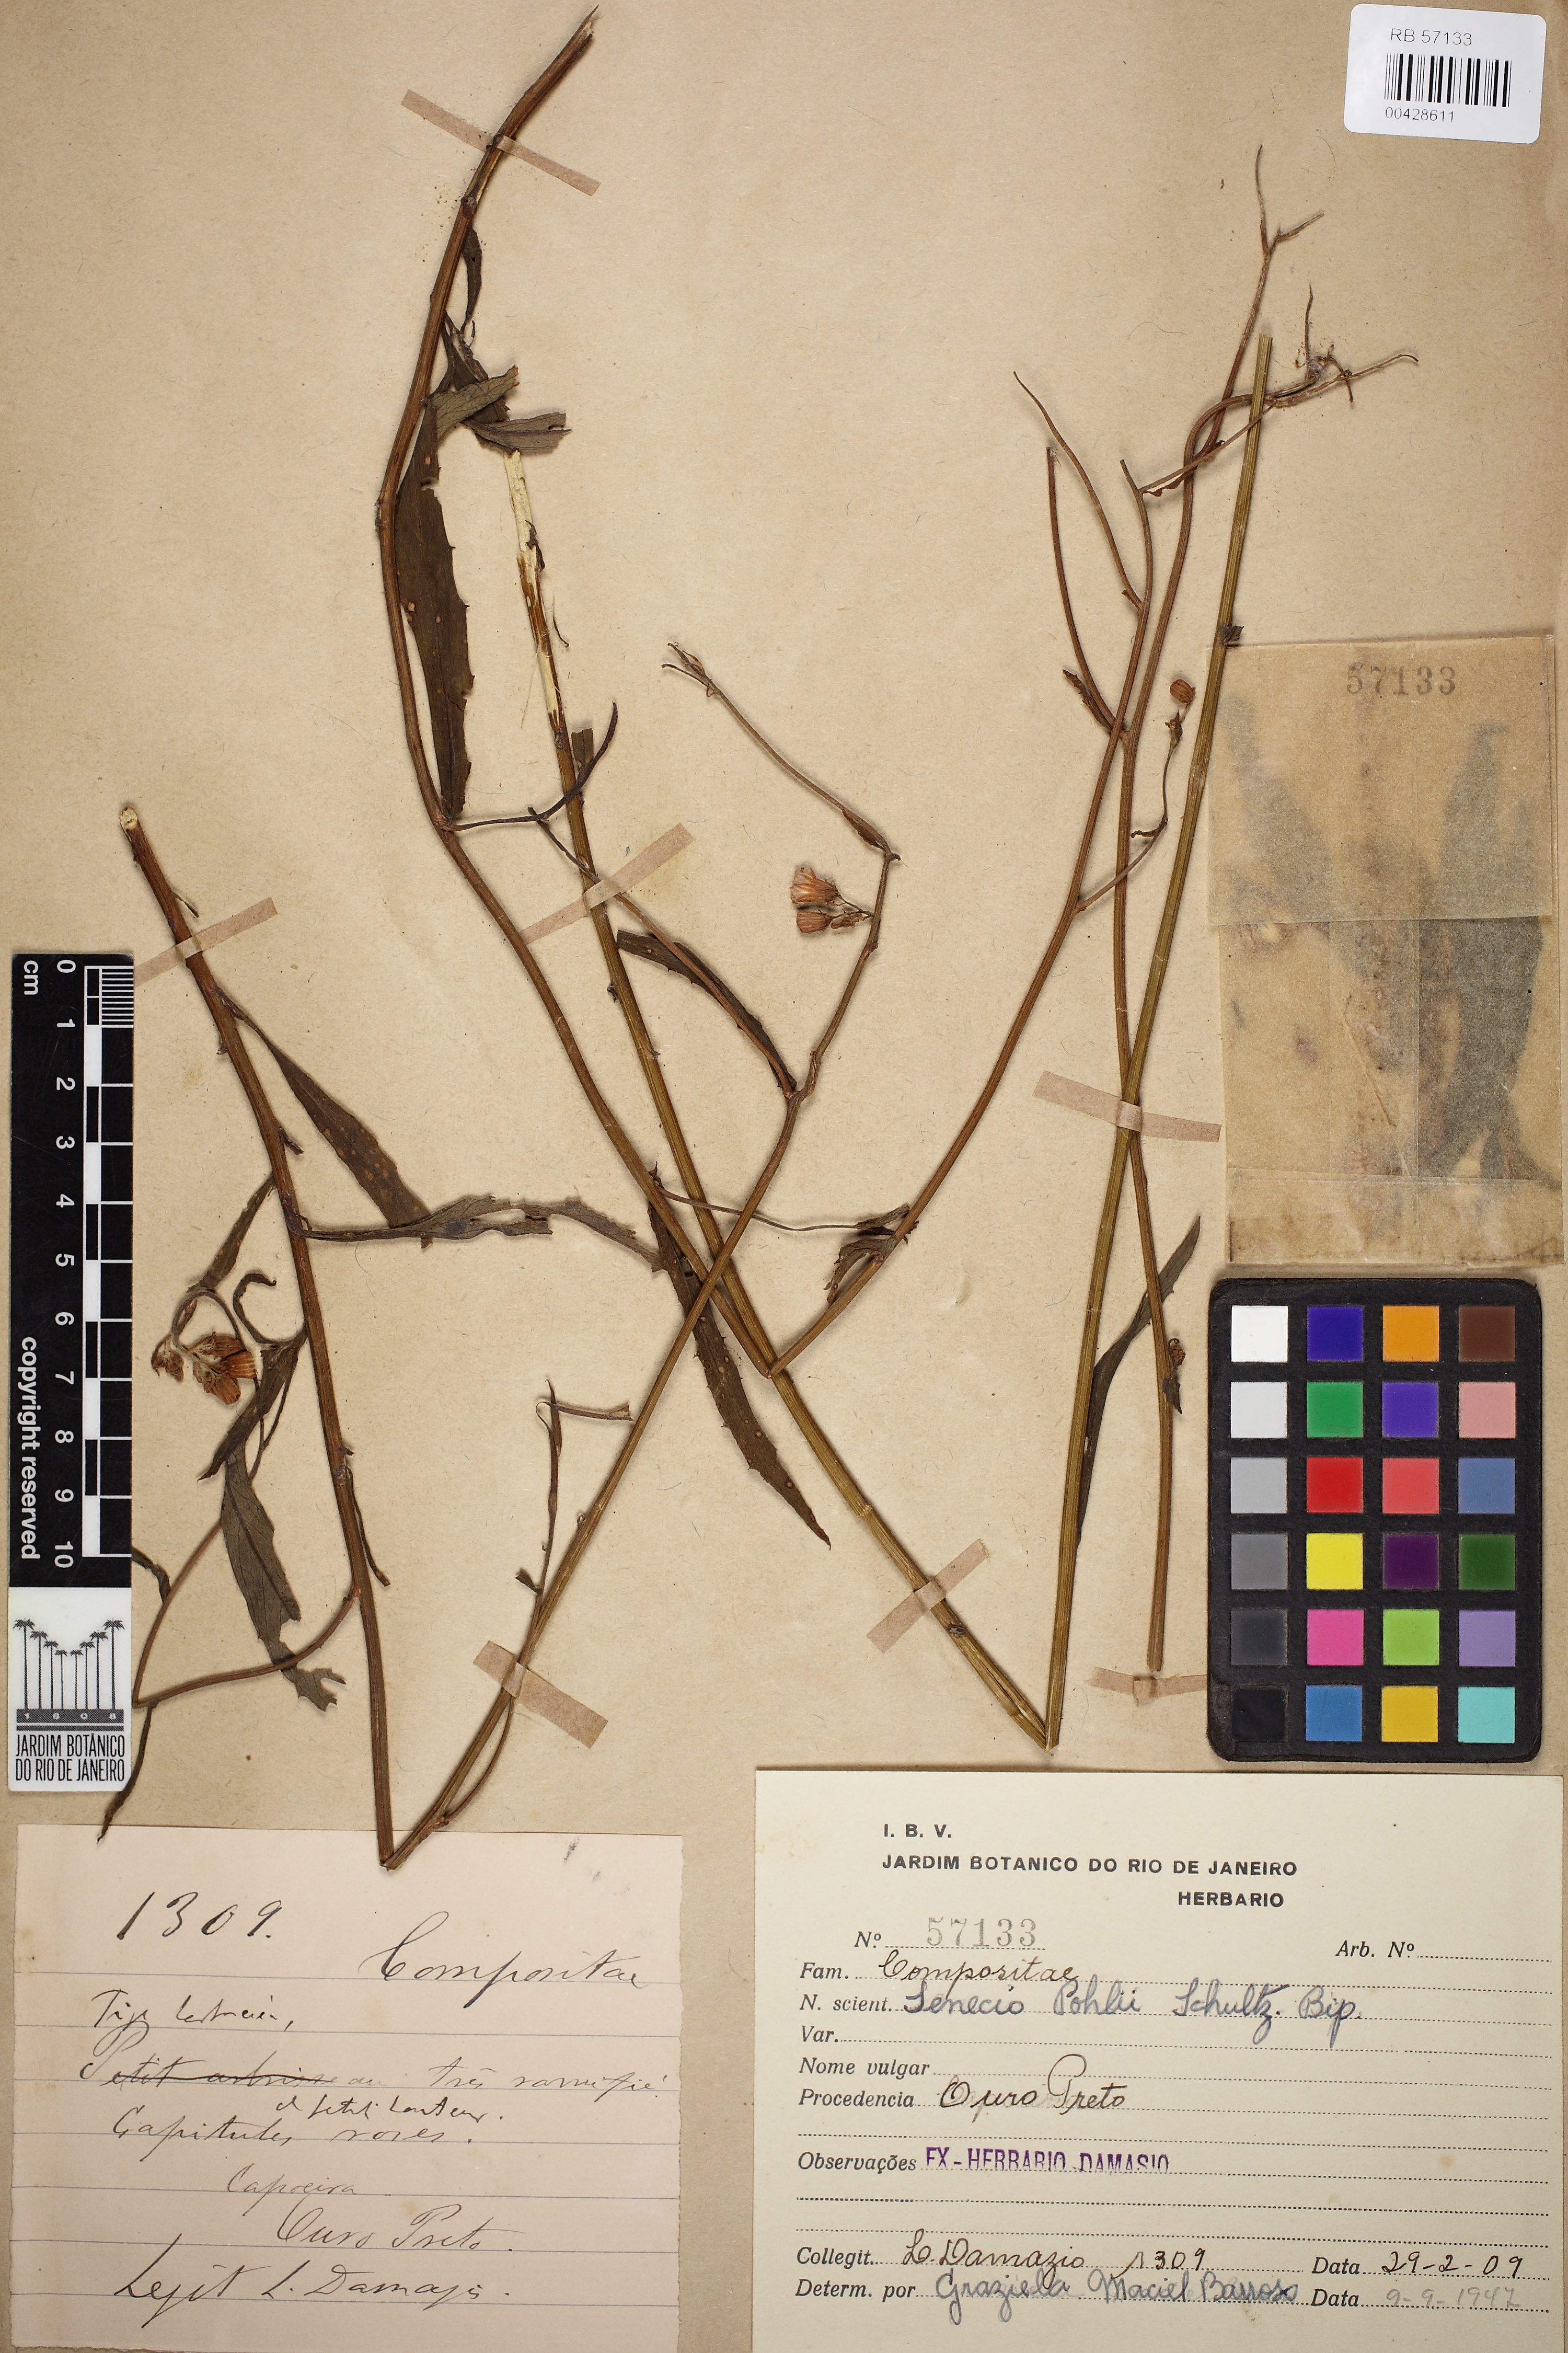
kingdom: Plantae
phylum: Tracheophyta
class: Magnoliopsida
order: Asterales
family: Asteraceae
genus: Pseudogynoxys
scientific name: Pseudogynoxys pohlii
